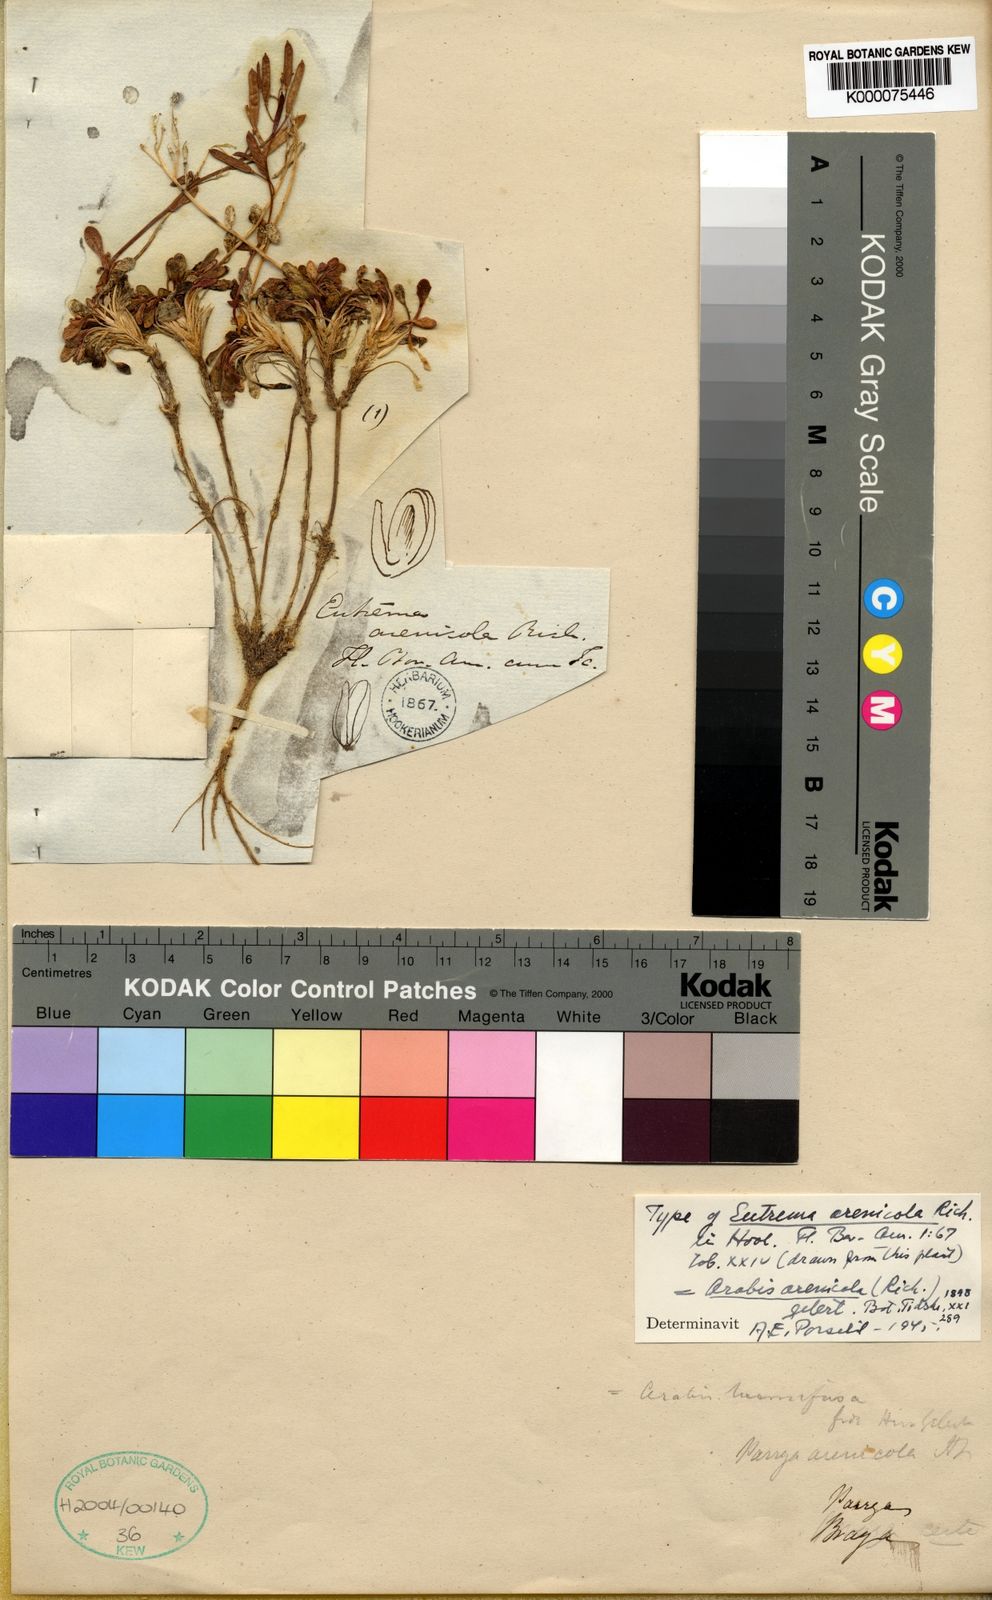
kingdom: Plantae
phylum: Tracheophyta
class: Magnoliopsida
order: Brassicales
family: Brassicaceae
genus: Arabidopsis
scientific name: Arabidopsis arenicola
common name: Arctic rockcress
